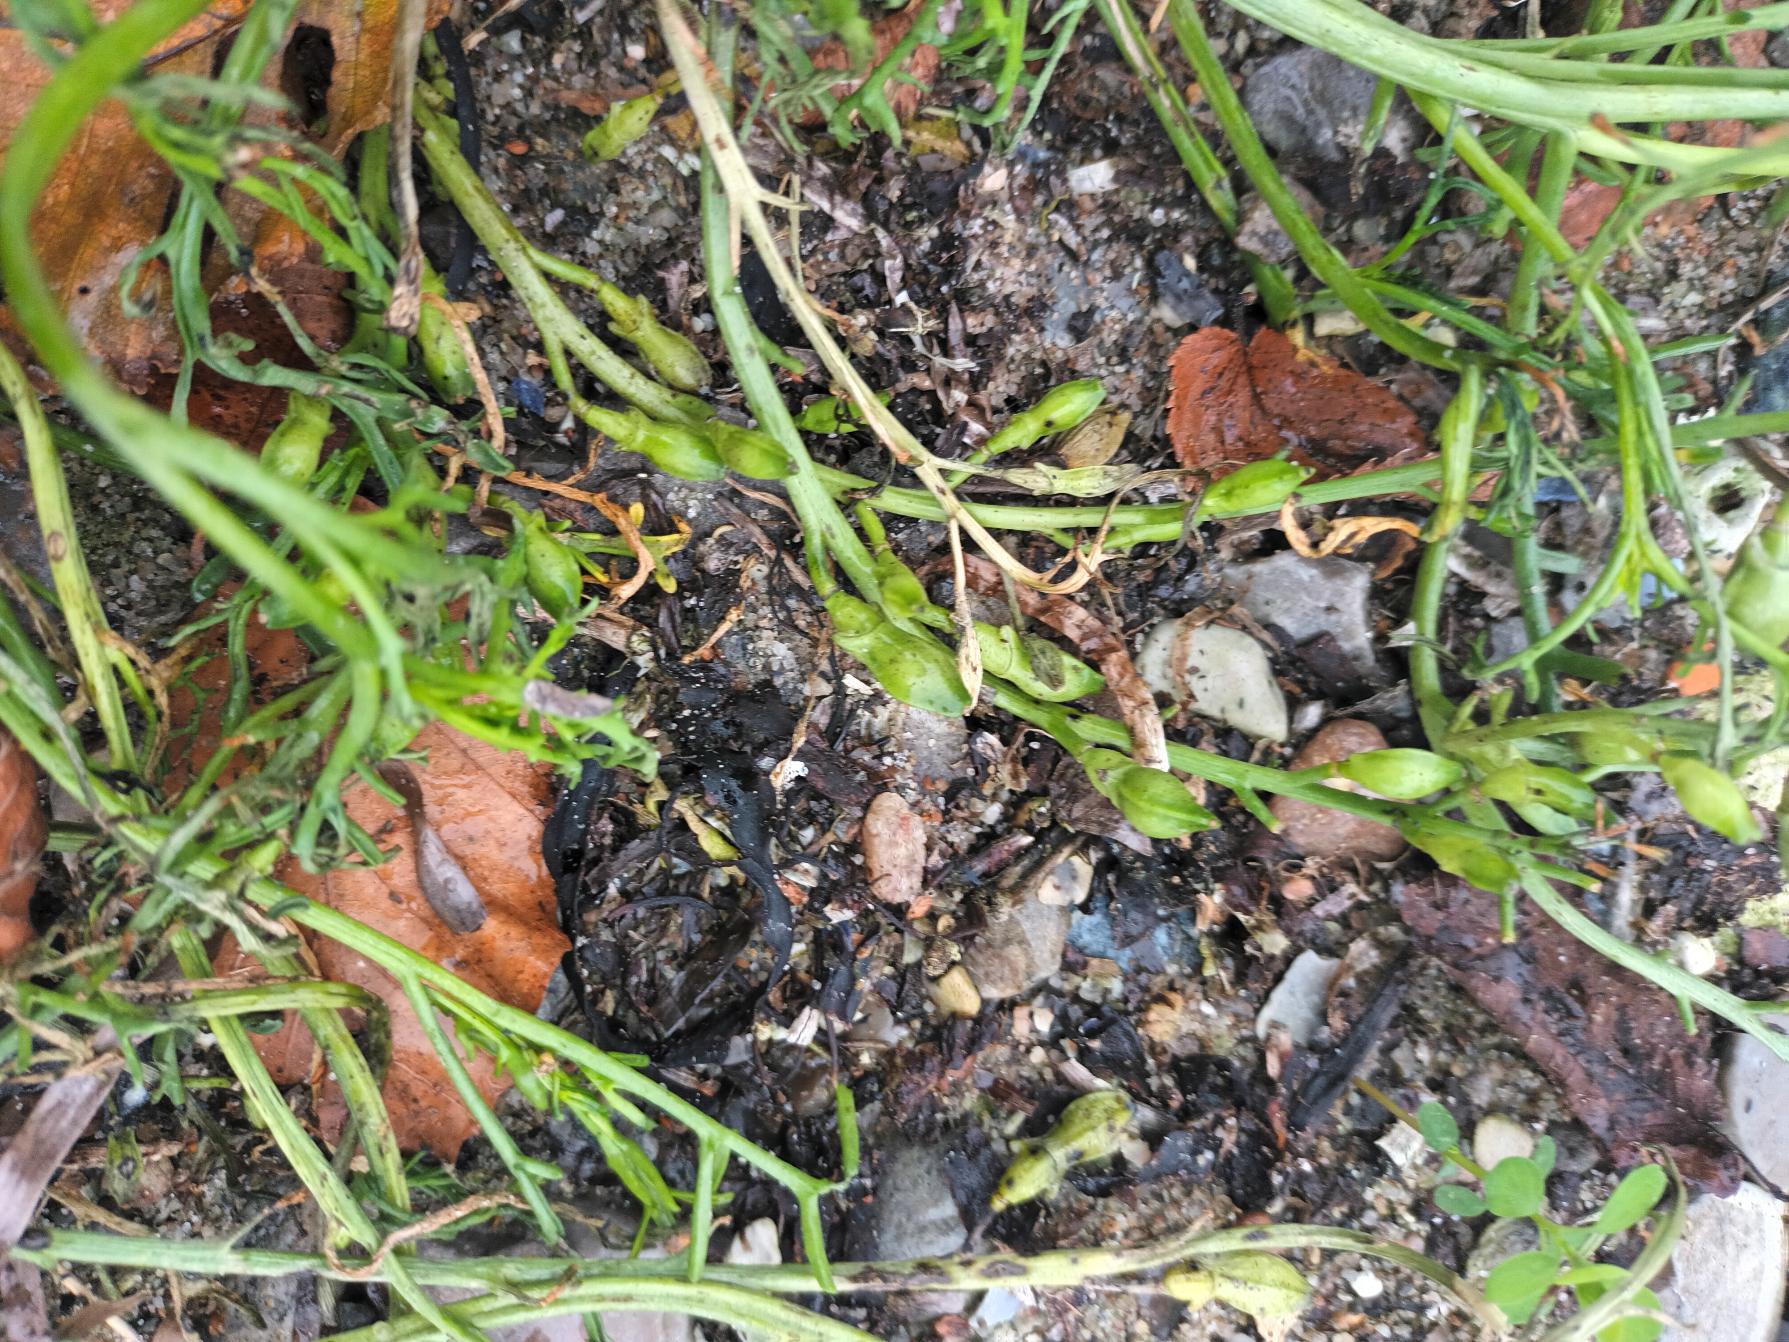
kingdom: Plantae
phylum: Tracheophyta
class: Magnoliopsida
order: Brassicales
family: Brassicaceae
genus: Cakile
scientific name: Cakile maritima
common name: Strandsennep
